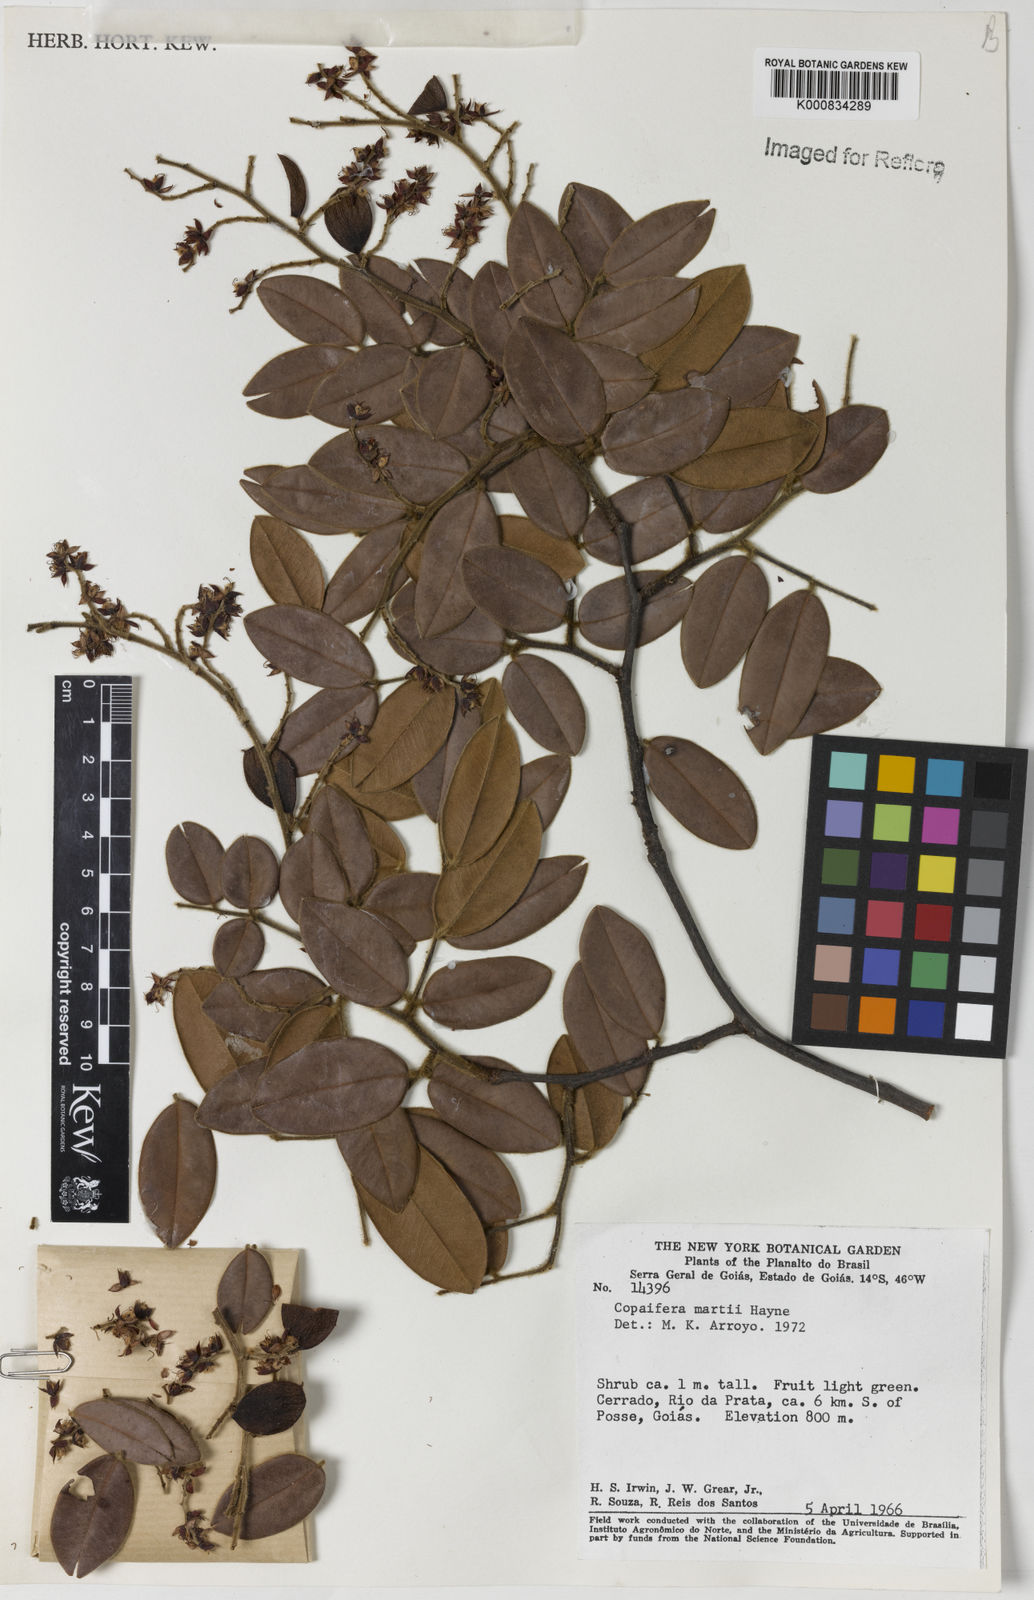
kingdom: Plantae
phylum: Tracheophyta
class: Magnoliopsida
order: Fabales
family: Fabaceae
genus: Copaifera
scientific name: Copaifera martii
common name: Copaiba
